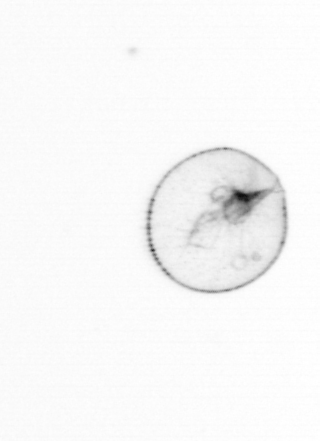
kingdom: Chromista
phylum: Myzozoa
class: Dinophyceae
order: Noctilucales
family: Noctilucaceae
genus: Noctiluca
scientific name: Noctiluca scintillans
